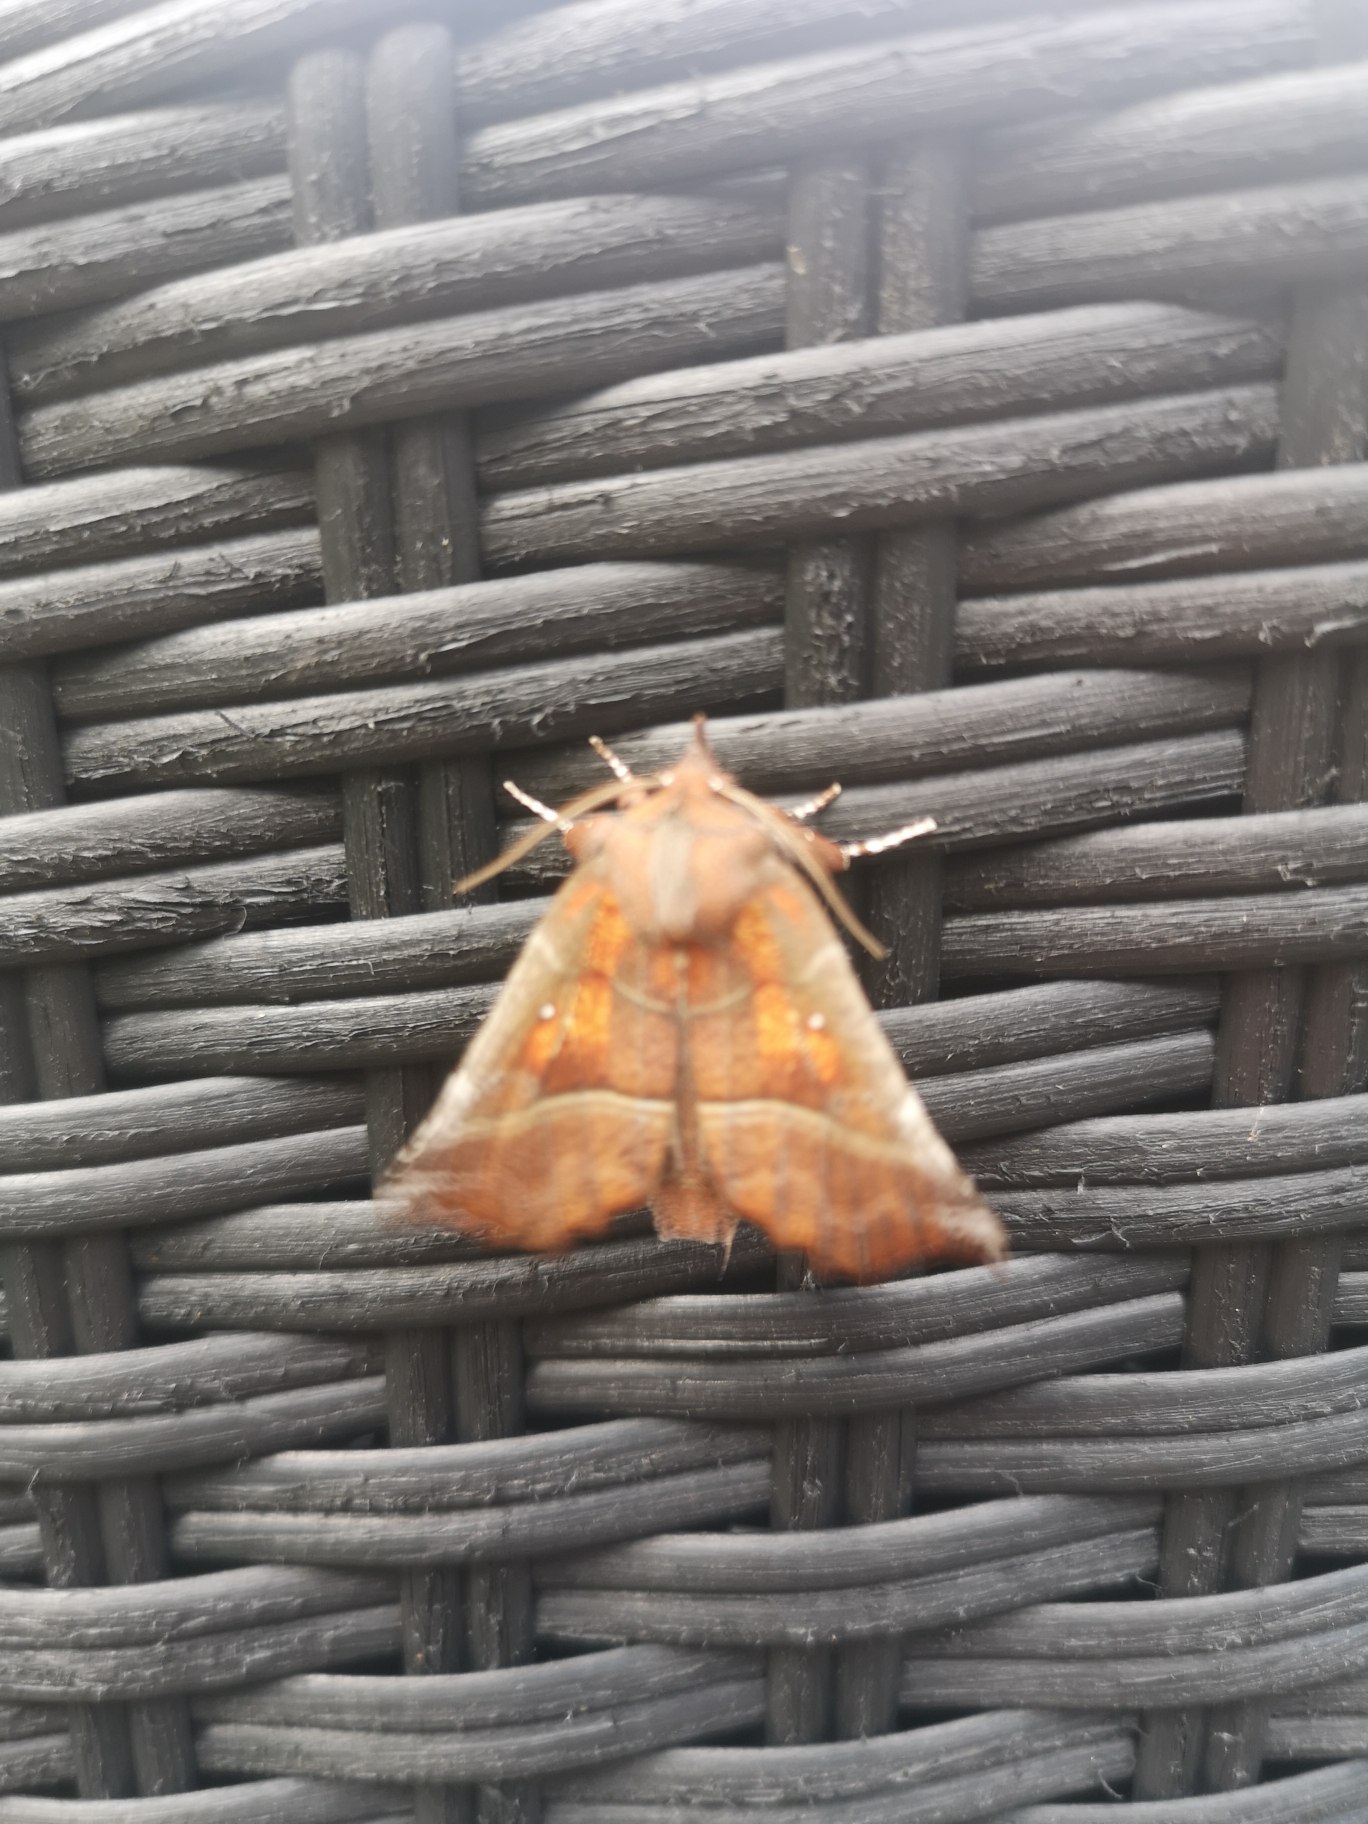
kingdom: Animalia
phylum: Arthropoda
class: Insecta
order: Lepidoptera
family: Erebidae
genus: Scoliopteryx
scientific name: Scoliopteryx libatrix
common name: Husmoderugle
